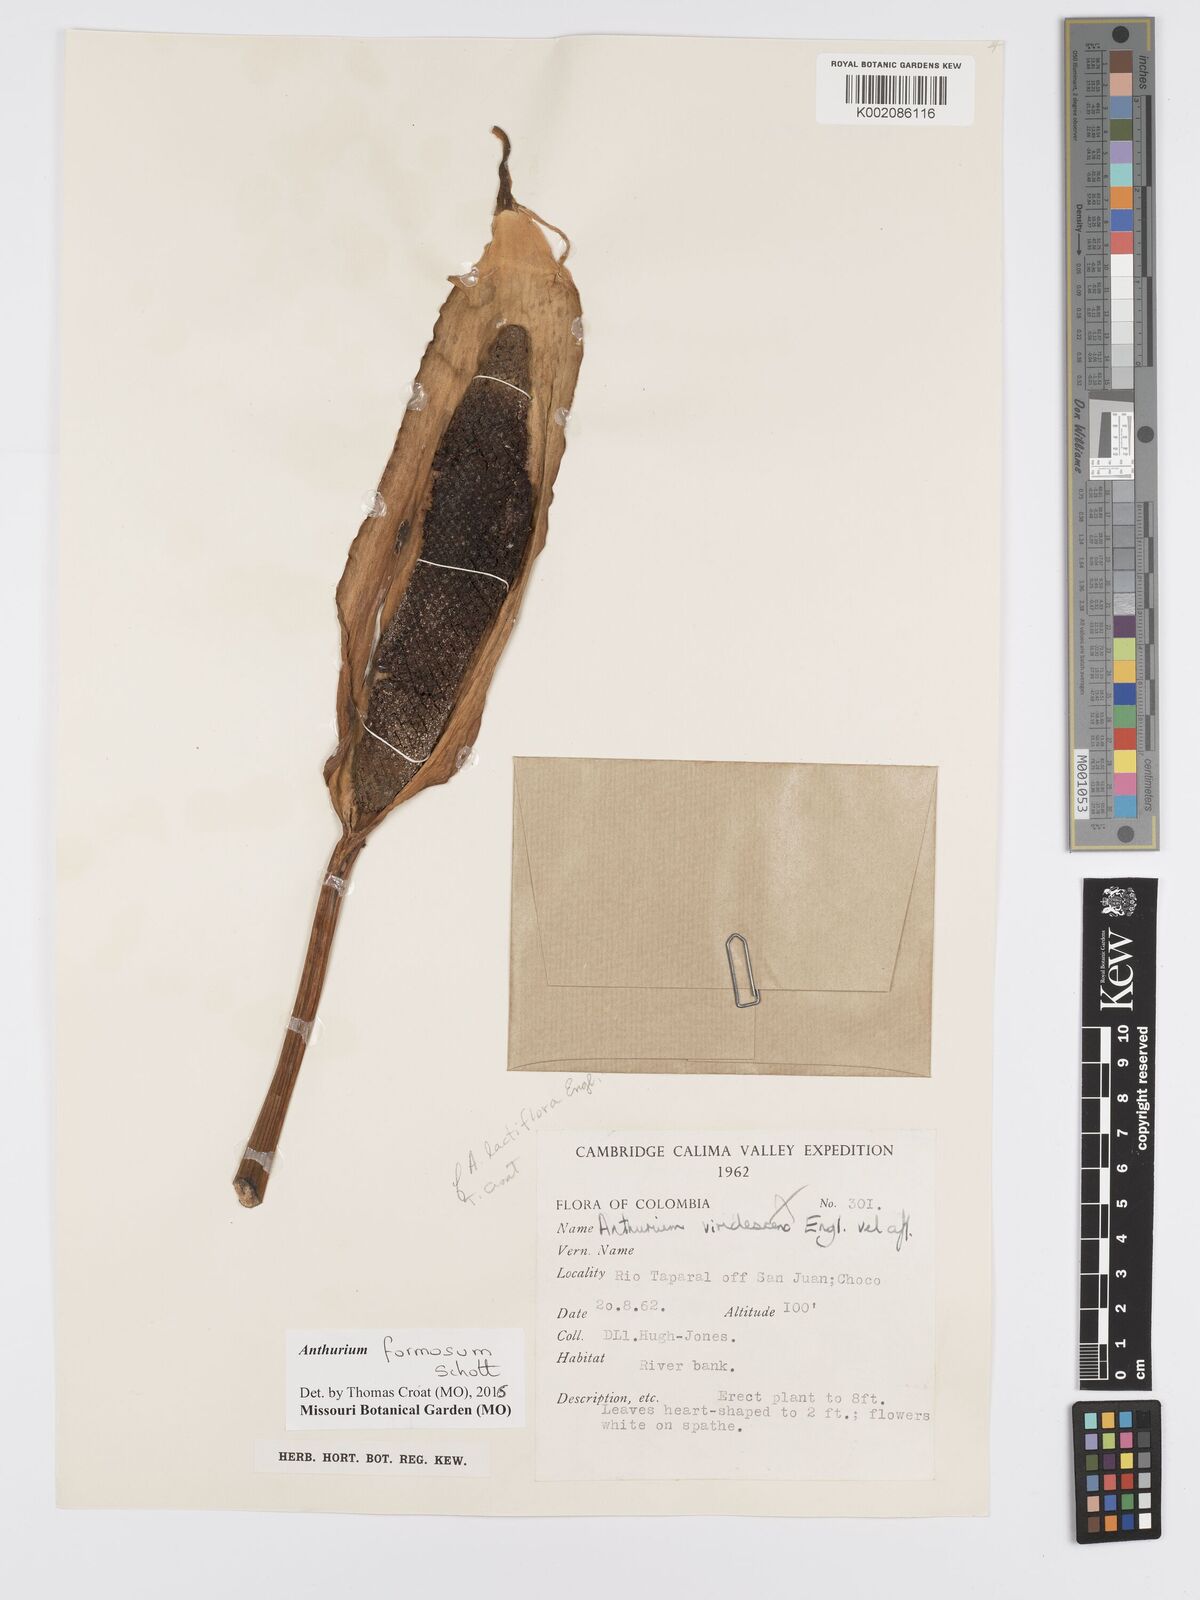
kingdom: Plantae
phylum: Tracheophyta
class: Liliopsida
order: Alismatales
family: Araceae
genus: Anthurium
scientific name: Anthurium formosum
